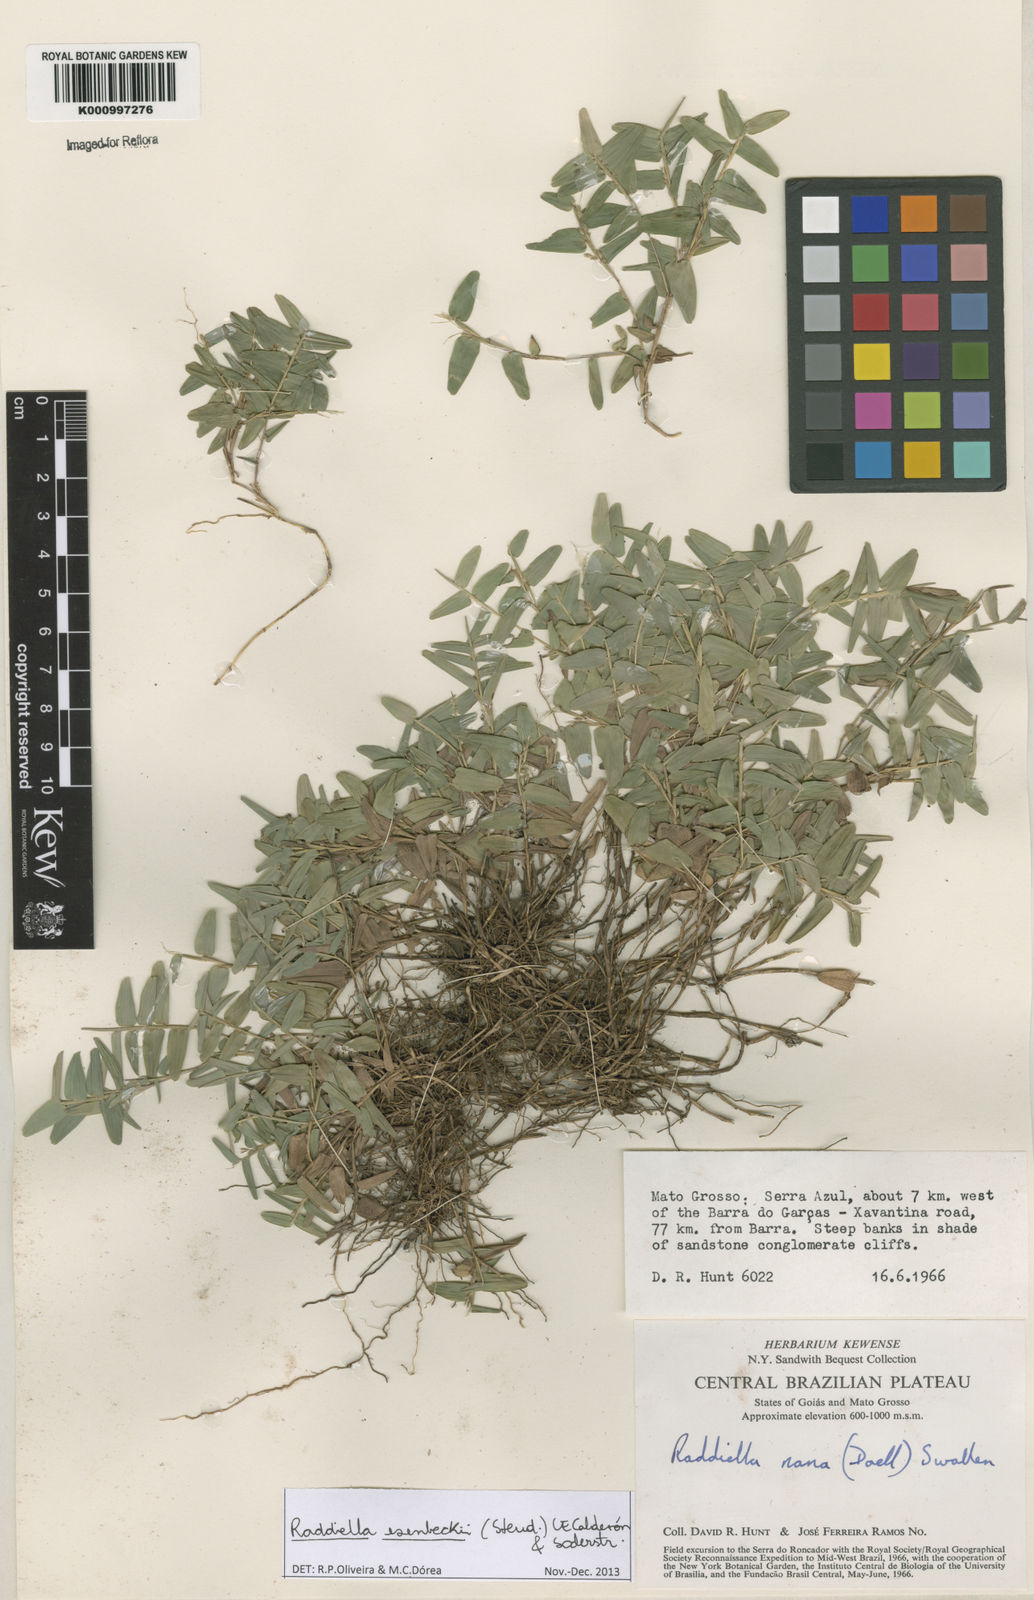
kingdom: Plantae
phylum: Tracheophyta
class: Liliopsida
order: Poales
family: Poaceae
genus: Raddiella
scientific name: Raddiella
